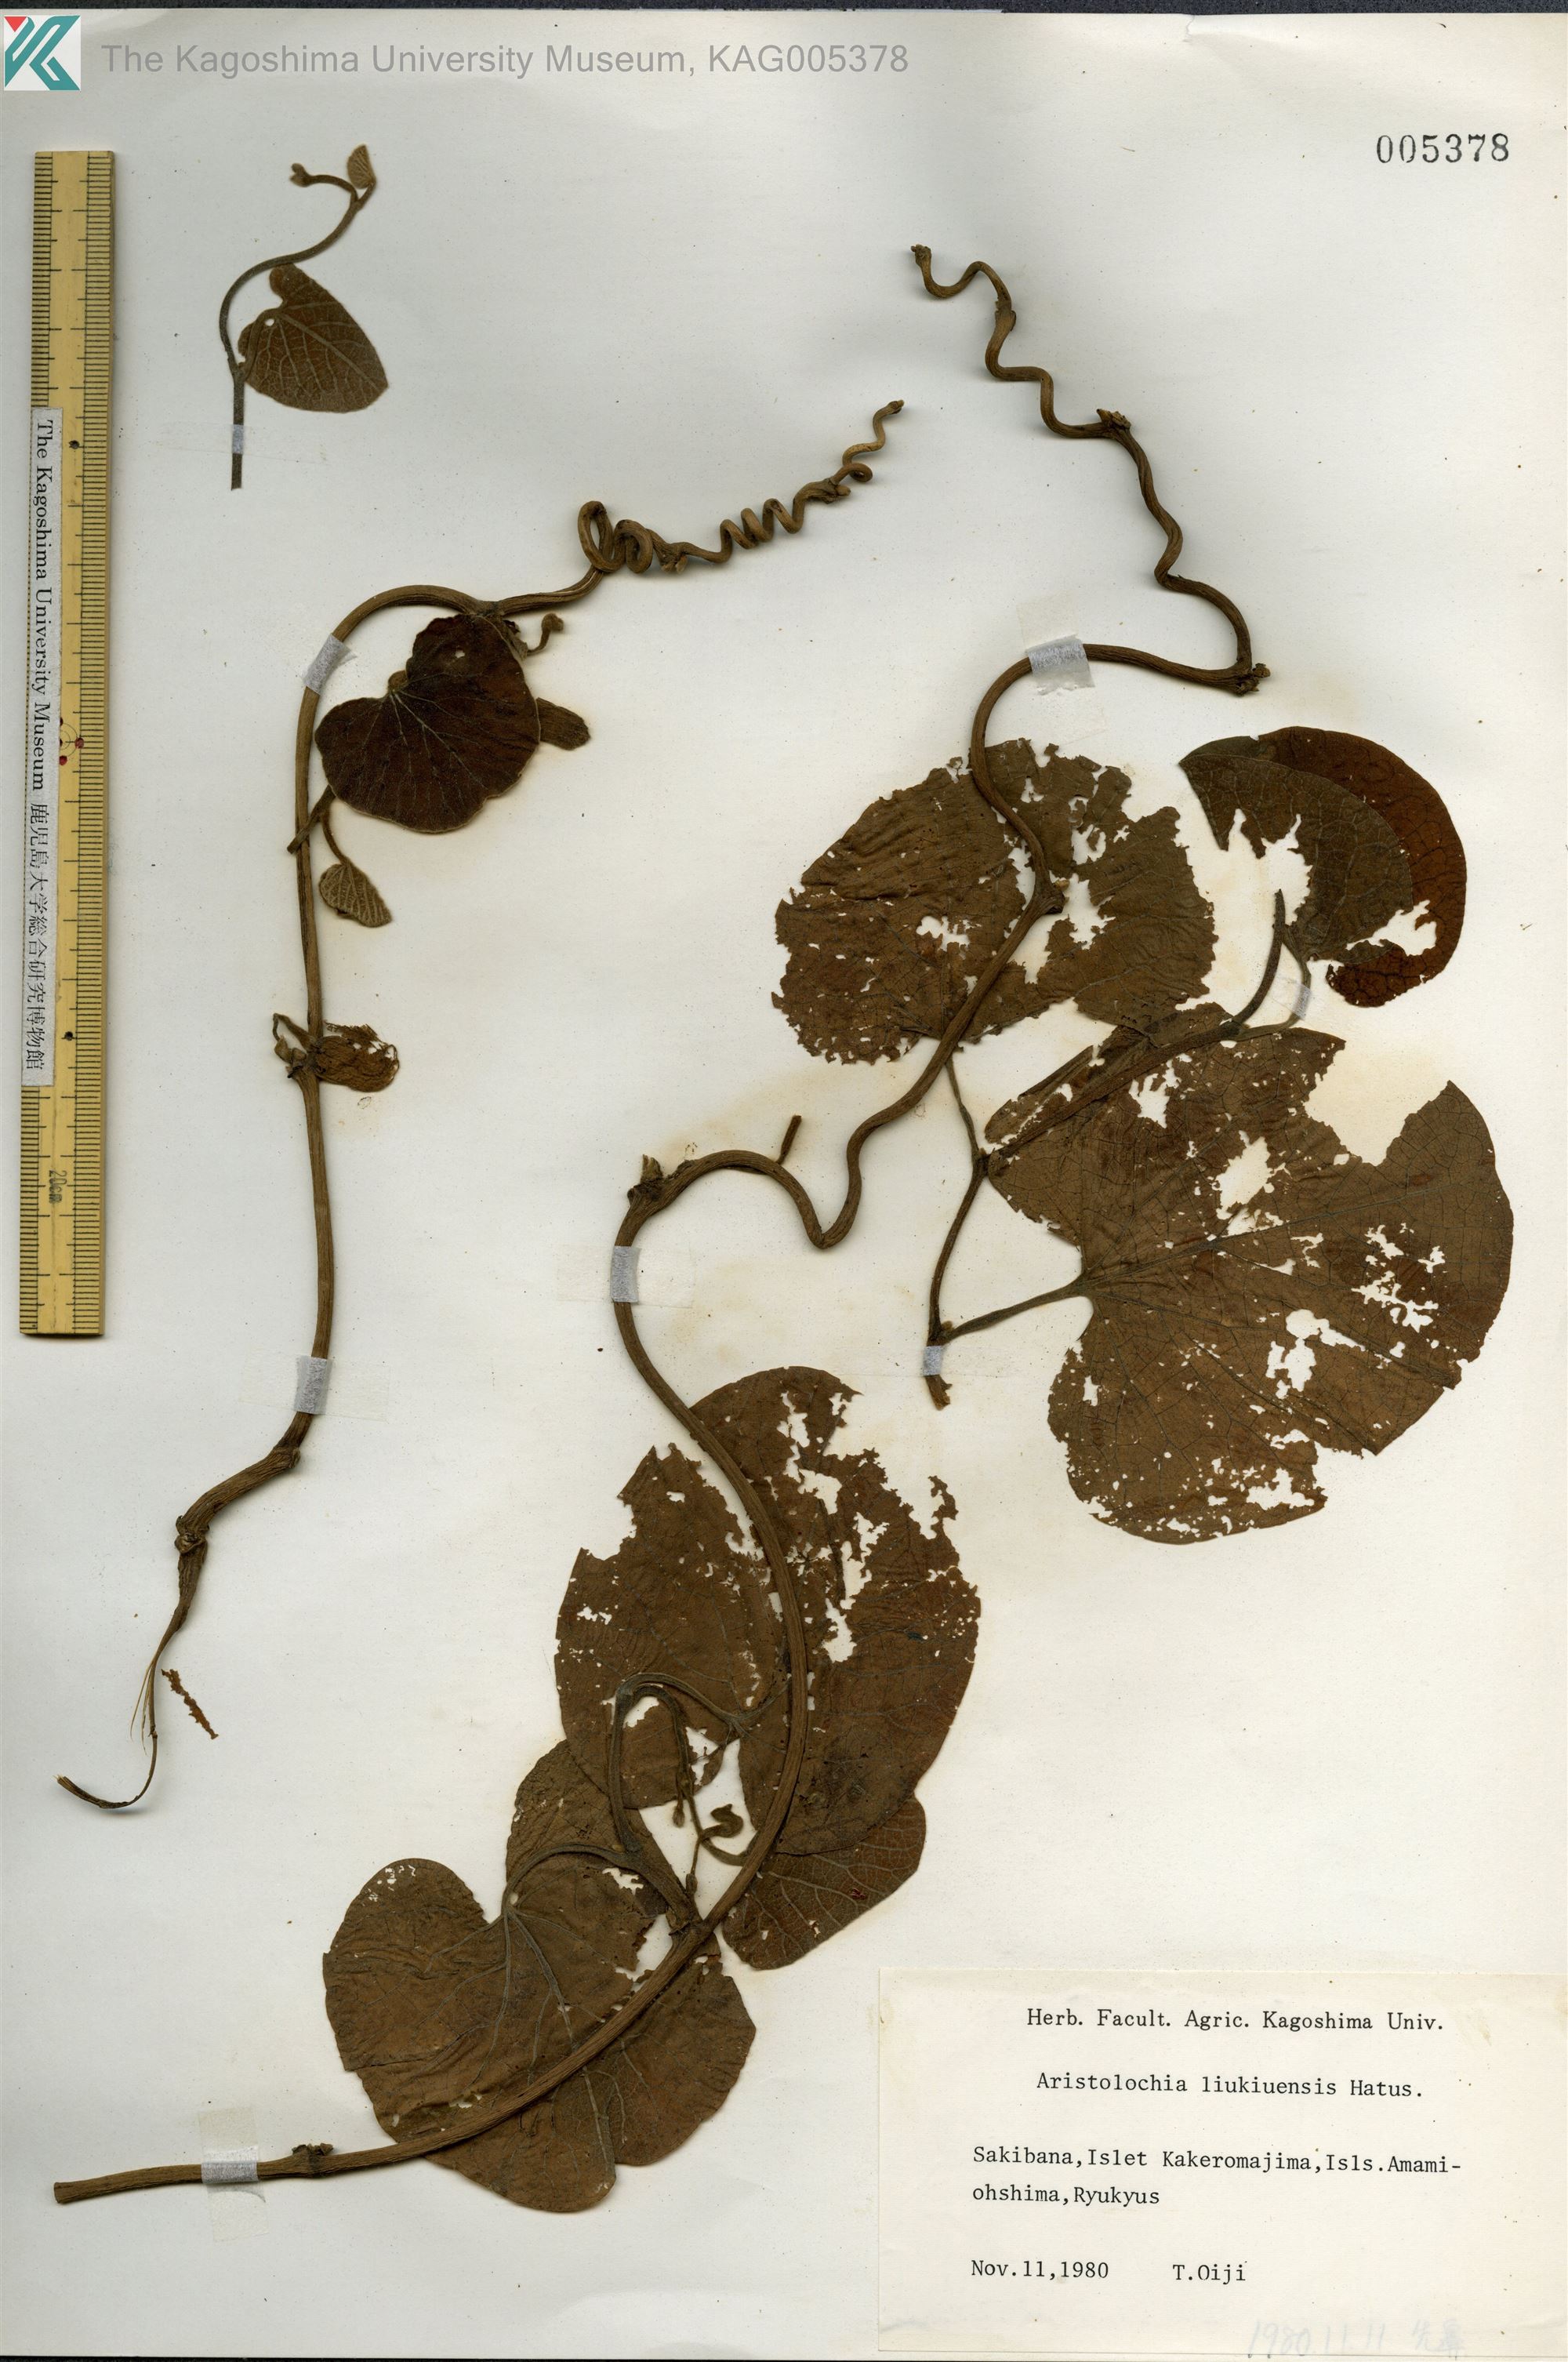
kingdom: Plantae
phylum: Tracheophyta
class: Magnoliopsida
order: Piperales
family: Aristolochiaceae
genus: Isotrema
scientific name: Isotrema liukiuense
